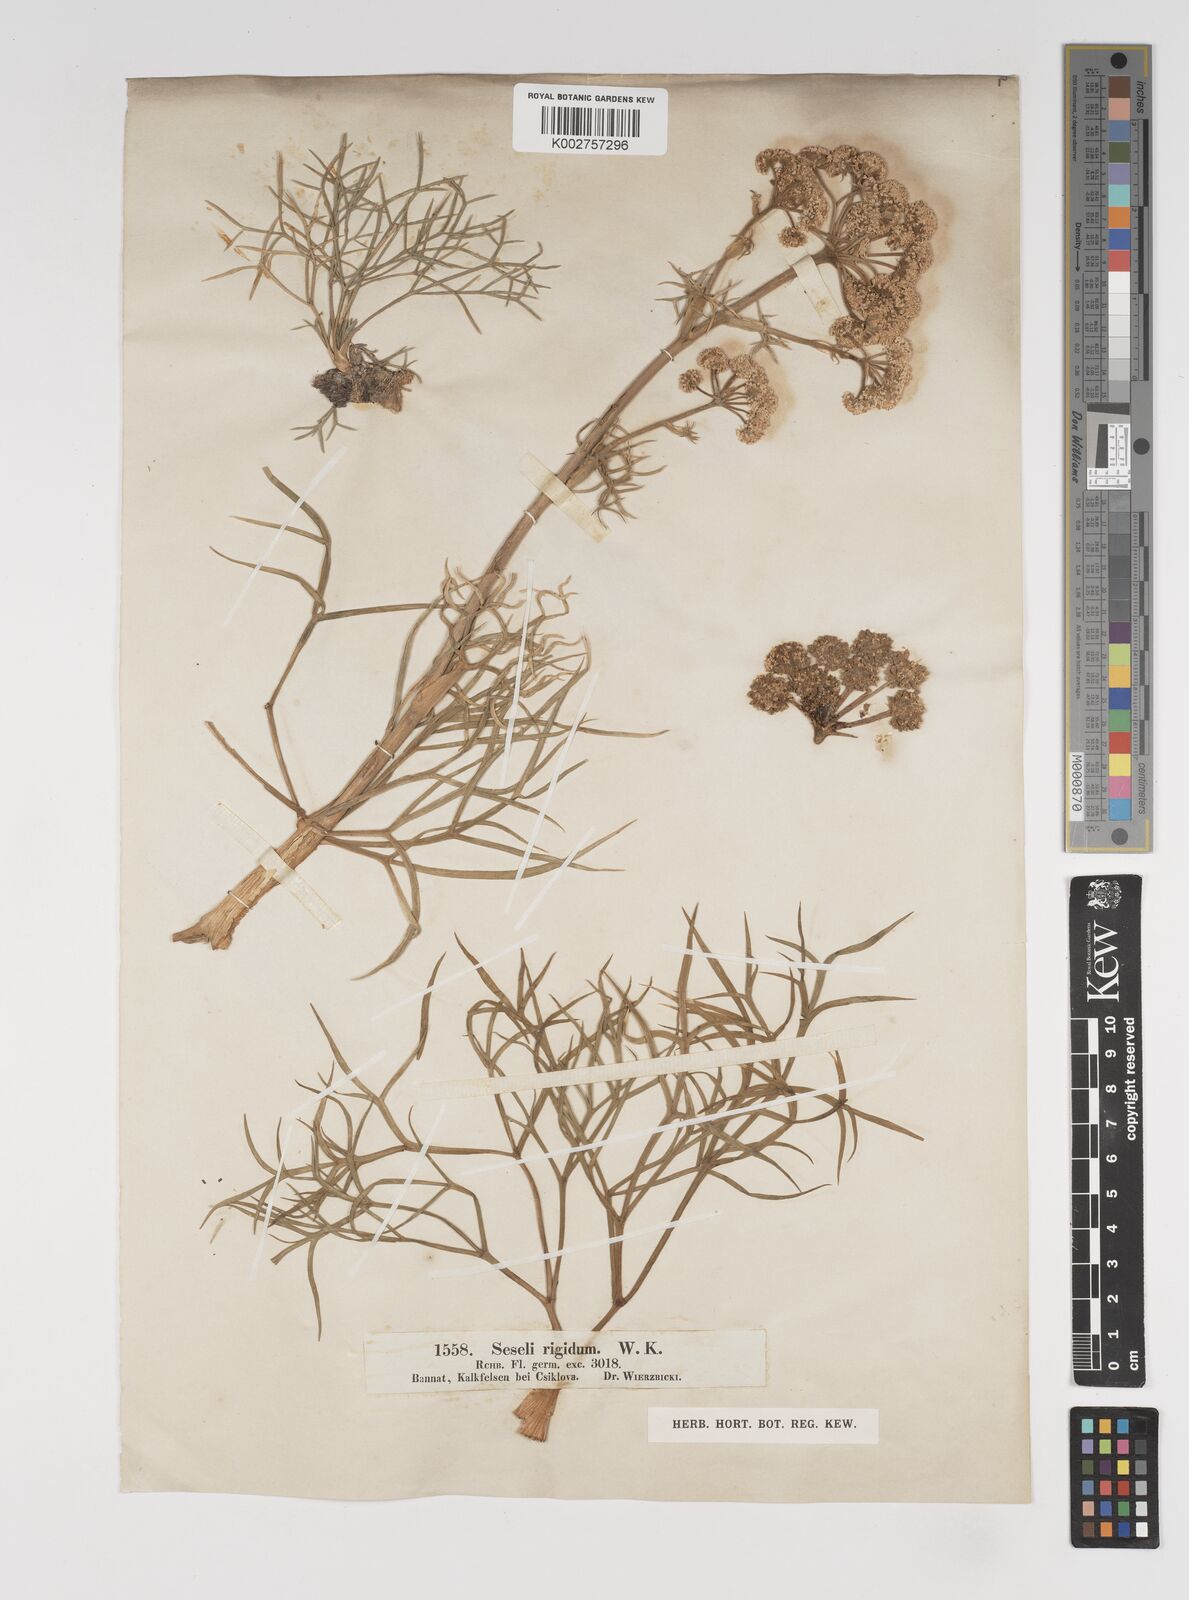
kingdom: Plantae
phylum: Tracheophyta
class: Magnoliopsida
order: Apiales
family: Apiaceae
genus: Seseli
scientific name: Seseli rigidum
